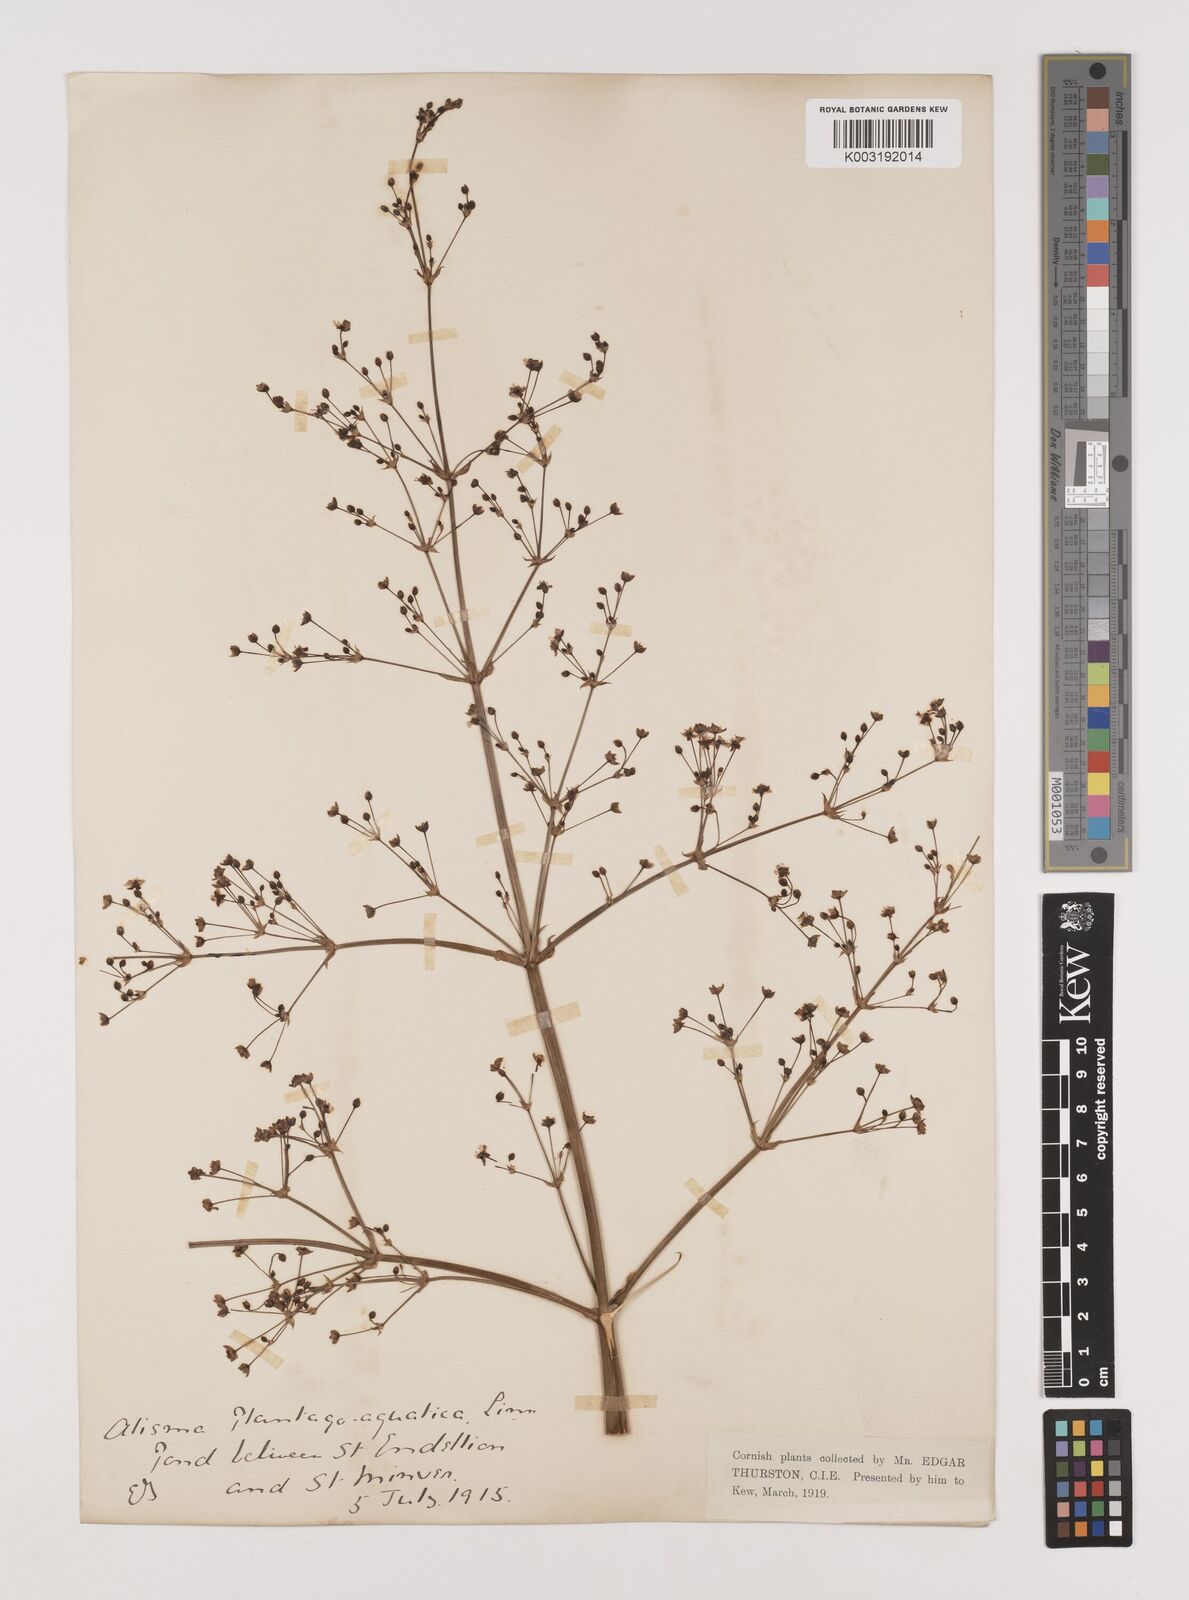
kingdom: Plantae
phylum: Tracheophyta
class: Liliopsida
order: Alismatales
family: Alismataceae
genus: Alisma
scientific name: Alisma plantago-aquatica
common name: Water-plantain
